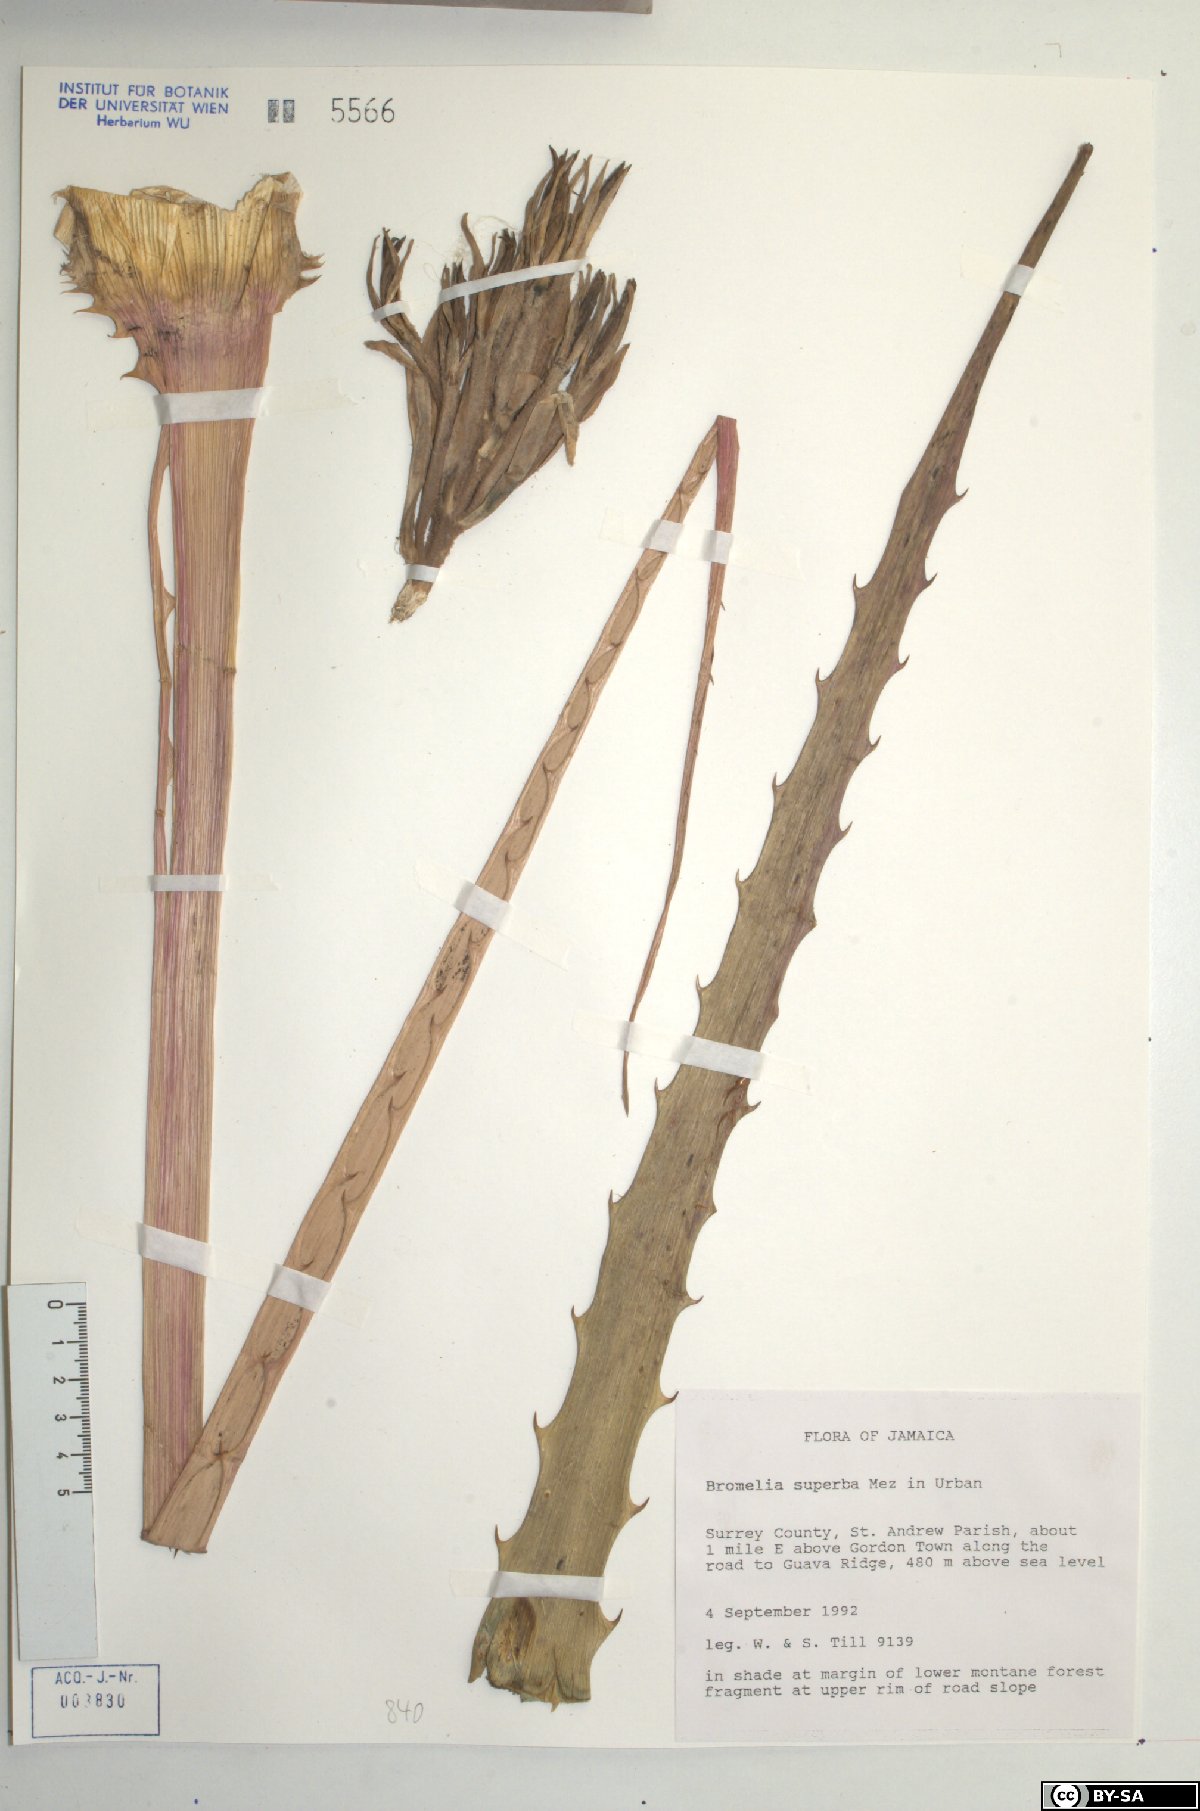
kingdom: Plantae
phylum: Tracheophyta
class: Liliopsida
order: Poales
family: Bromeliaceae
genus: Bromelia
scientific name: Bromelia superba
